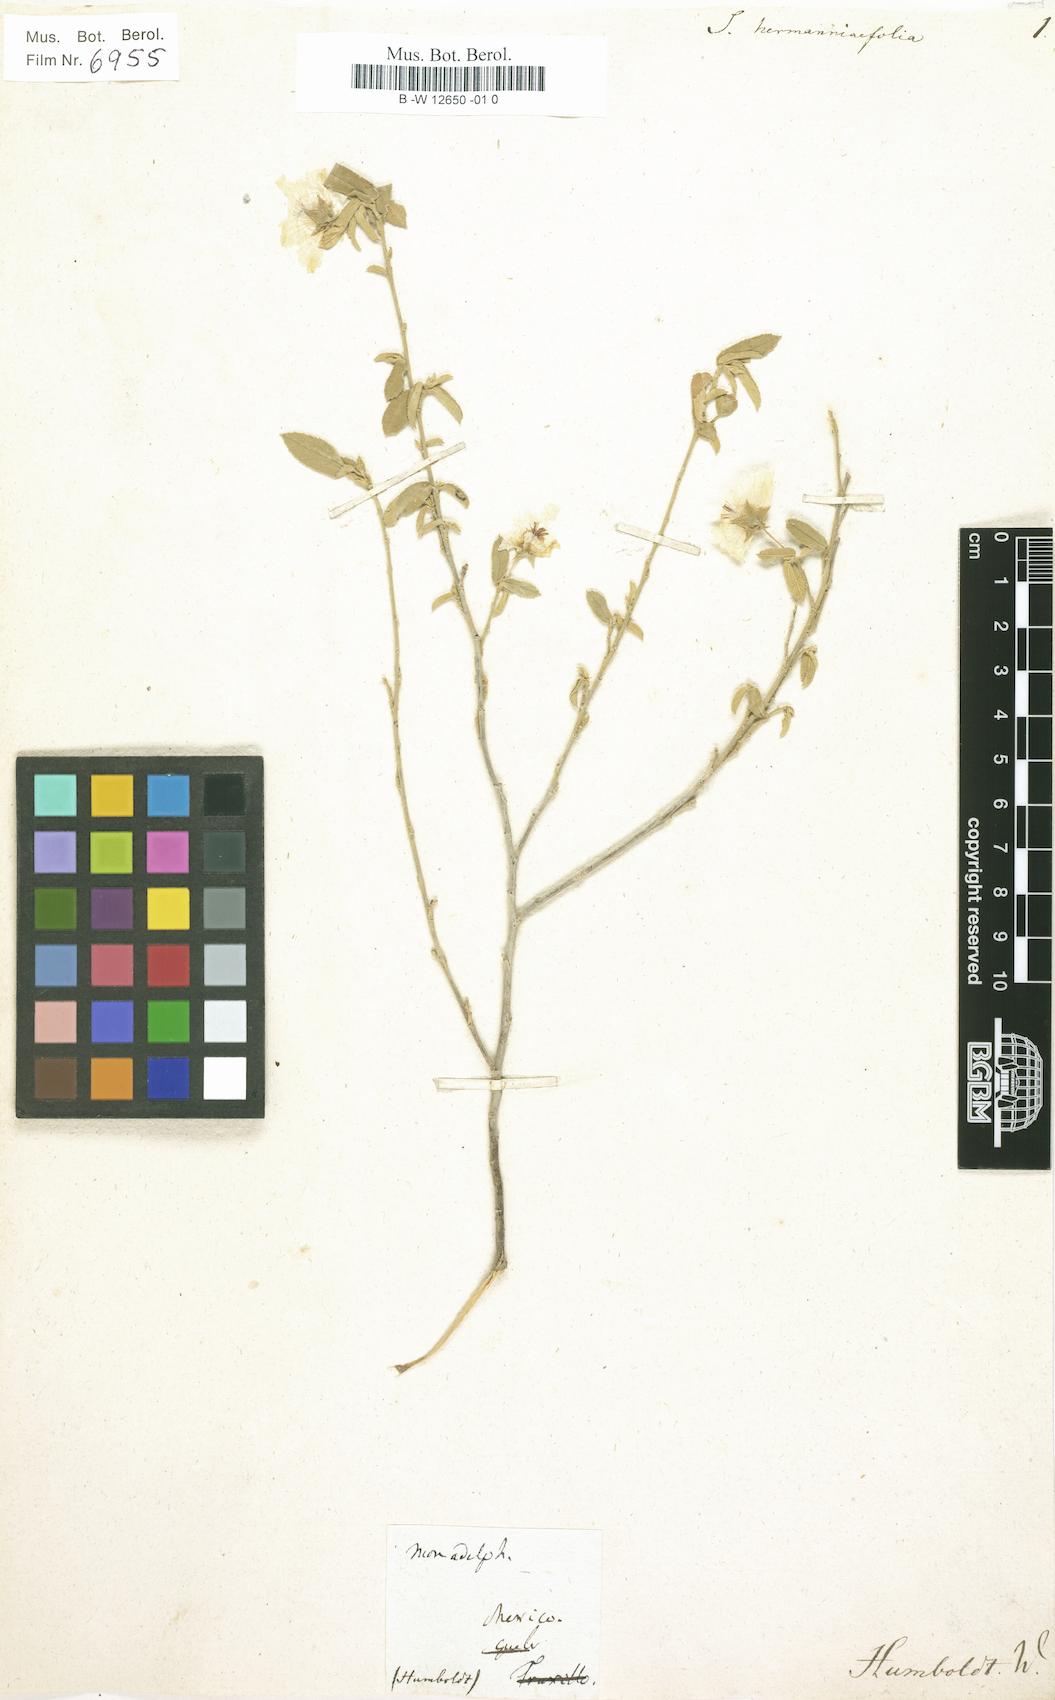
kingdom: Plantae
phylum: Tracheophyta
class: Magnoliopsida
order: Malvales
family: Malvaceae
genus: Sida
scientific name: Sida hermanniifolia
